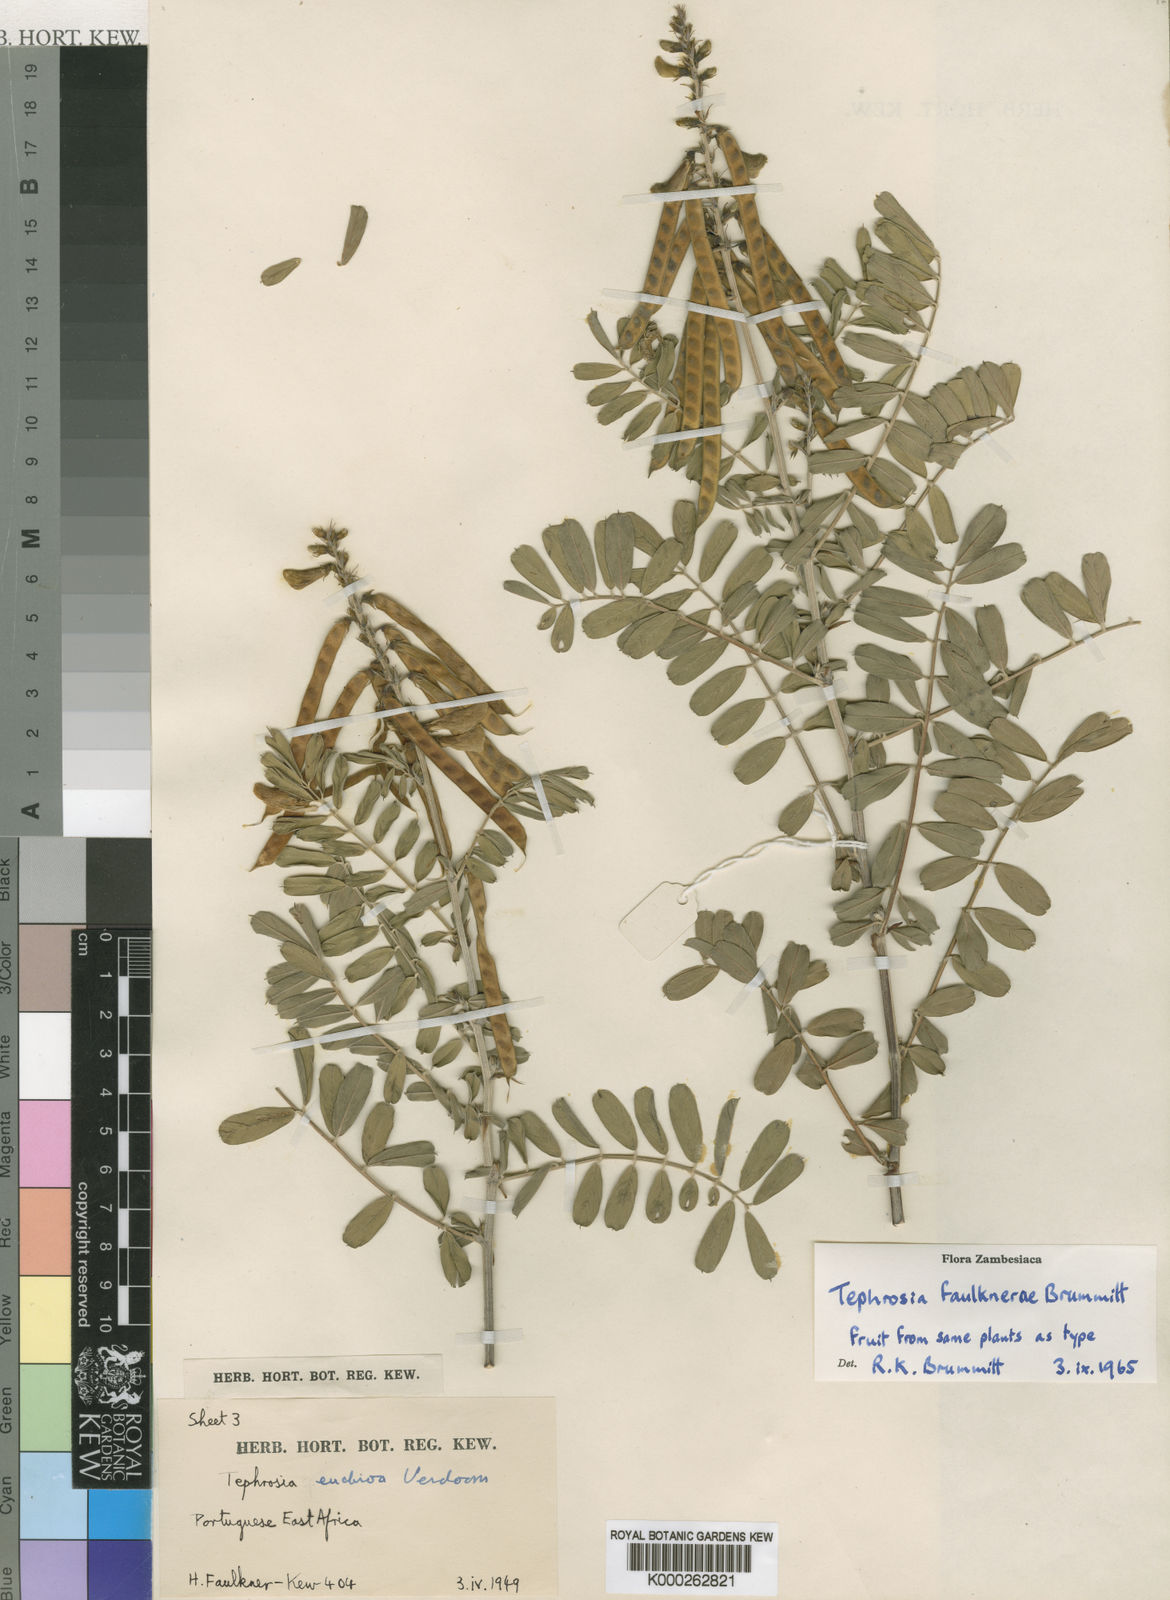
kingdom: Plantae
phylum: Tracheophyta
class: Magnoliopsida
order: Fabales
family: Fabaceae
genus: Tephrosia
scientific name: Tephrosia faulknerae
